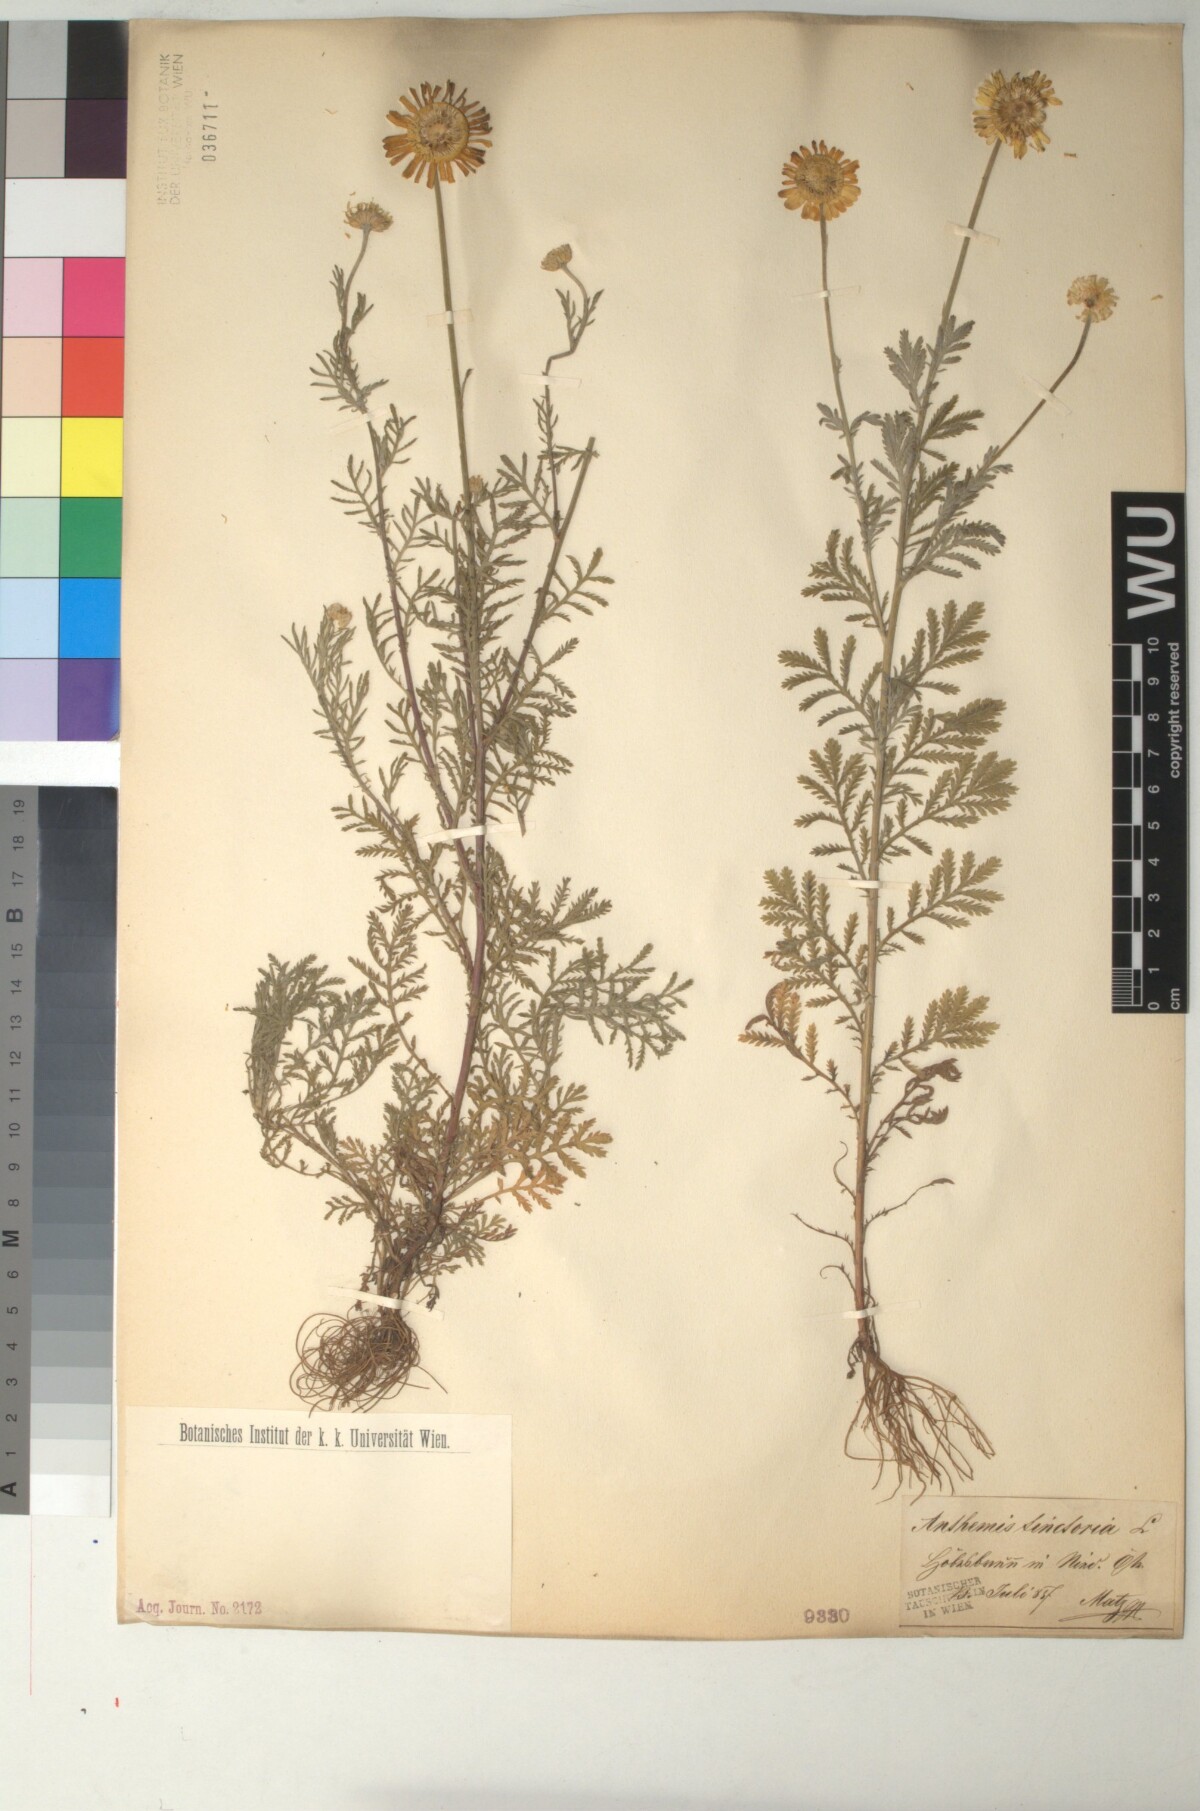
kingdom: Plantae
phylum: Tracheophyta
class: Magnoliopsida
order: Asterales
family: Asteraceae
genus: Cota
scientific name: Cota tinctoria
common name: Golden chamomile
